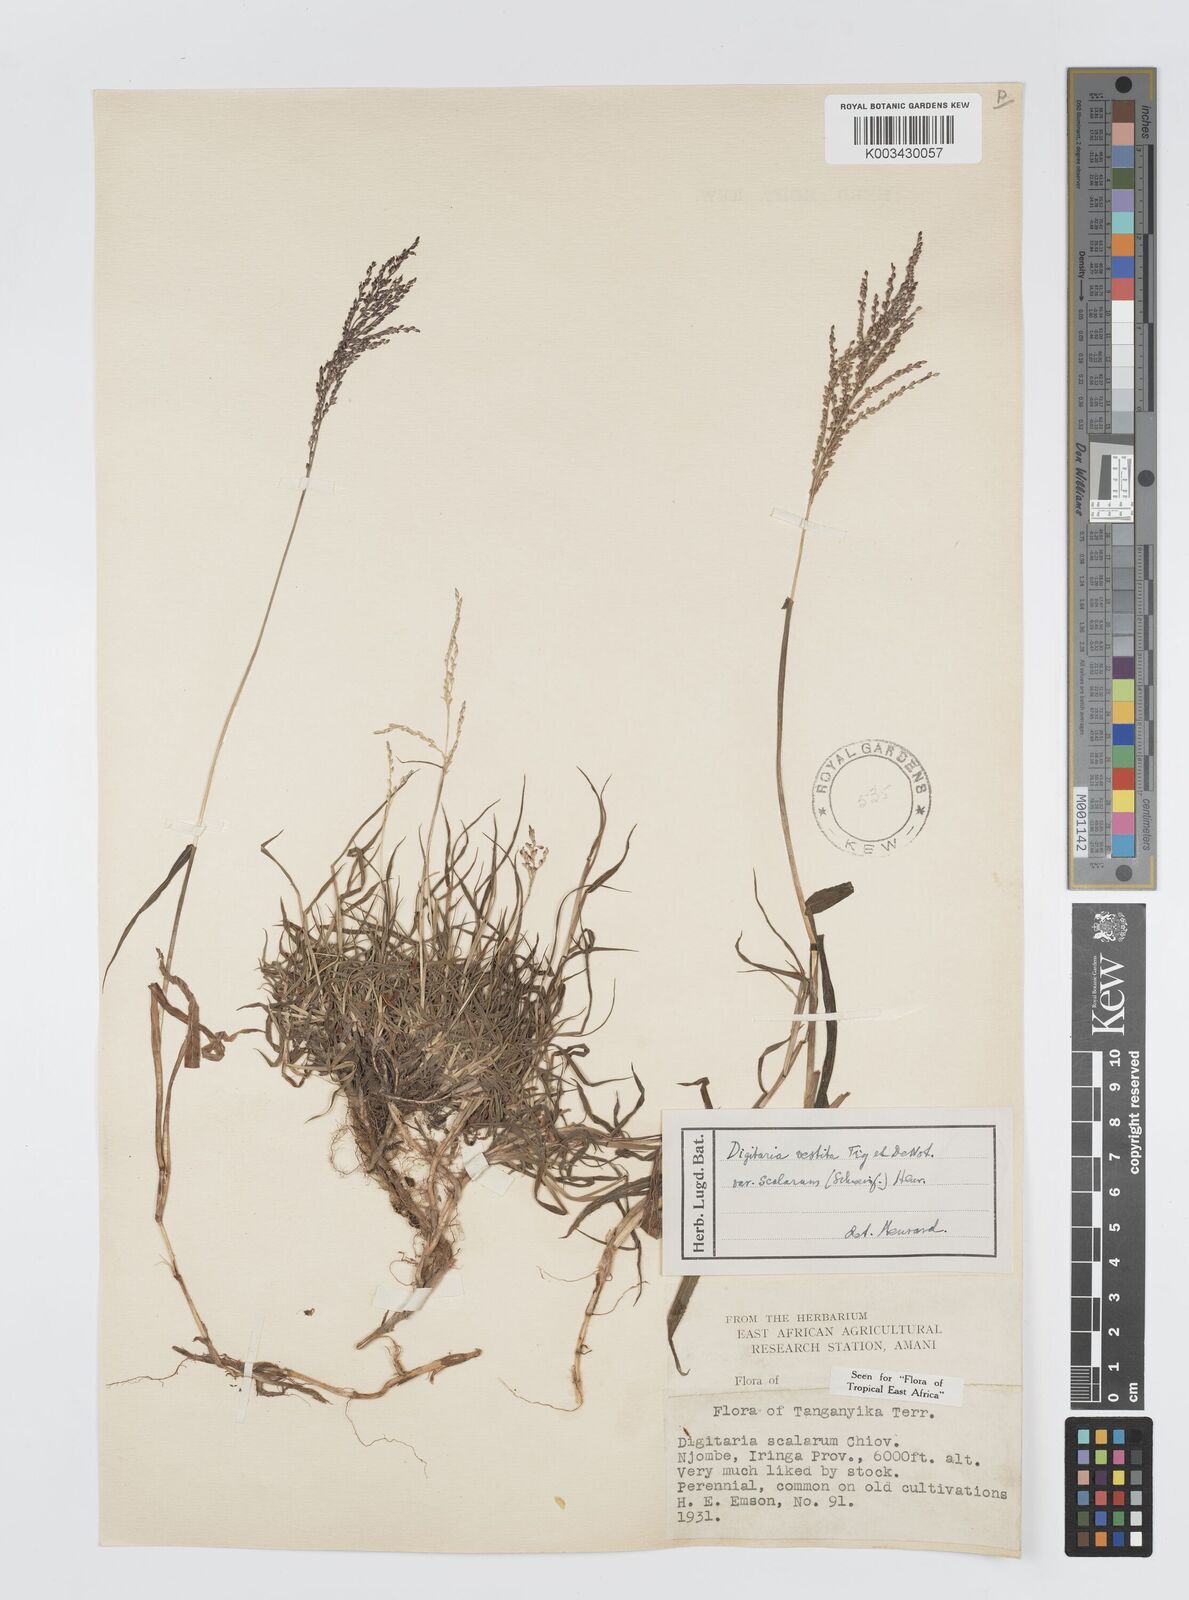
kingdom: Plantae
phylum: Tracheophyta
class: Liliopsida
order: Poales
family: Poaceae
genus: Digitaria
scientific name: Digitaria abyssinica
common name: African couchgrass
